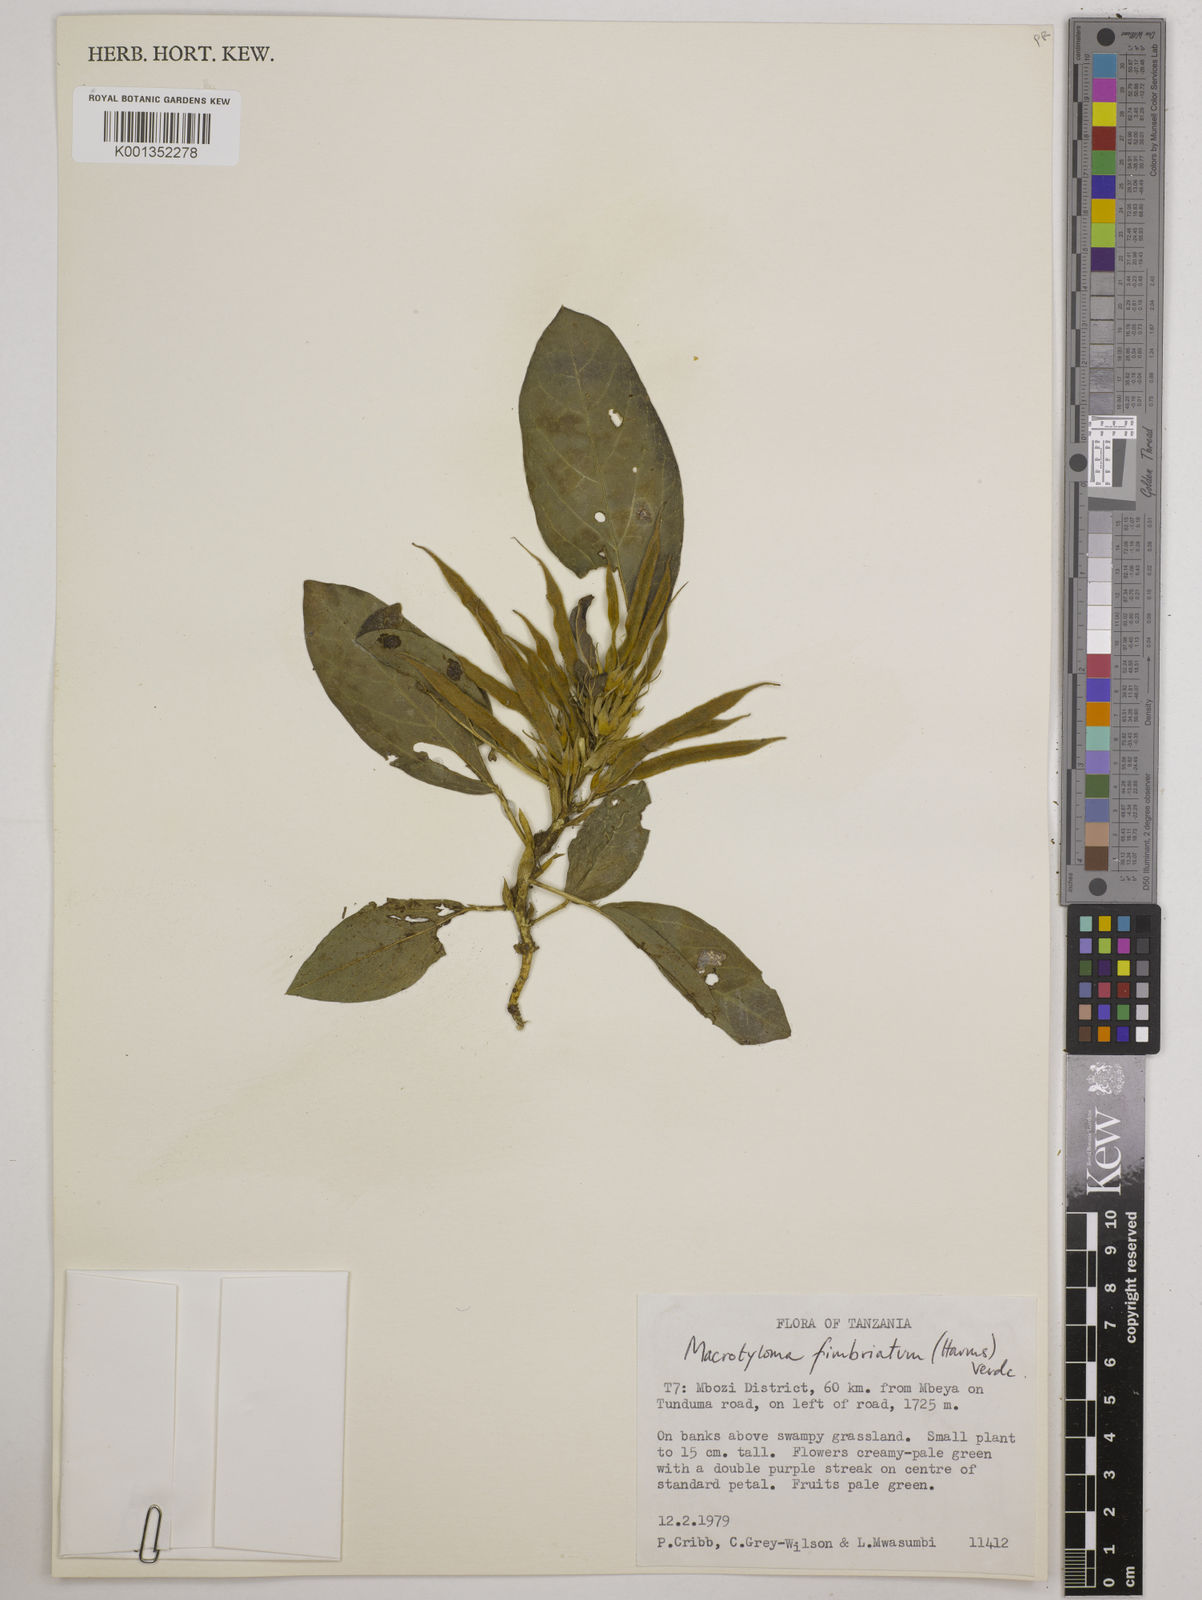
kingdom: Plantae
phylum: Tracheophyta
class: Magnoliopsida
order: Fabales
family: Fabaceae
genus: Macrotyloma
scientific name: Macrotyloma fimbriatum
